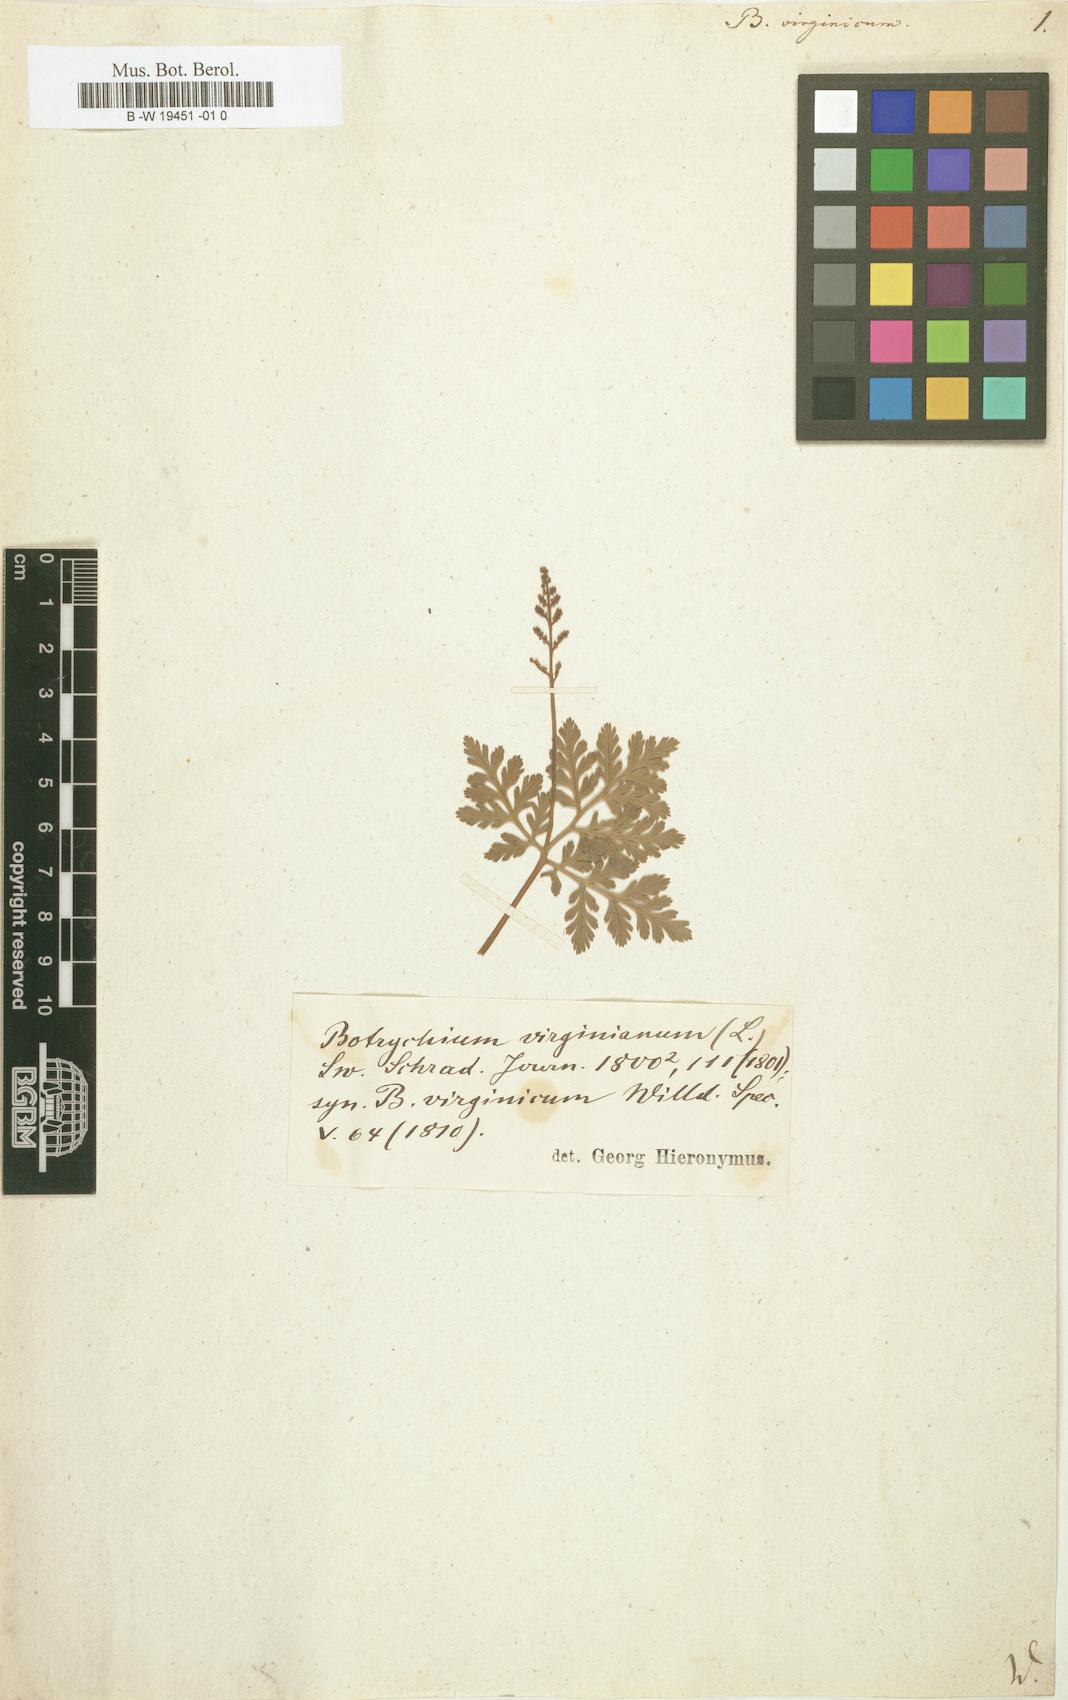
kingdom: Plantae
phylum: Tracheophyta
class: Polypodiopsida
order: Ophioglossales
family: Ophioglossaceae
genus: Botrypus
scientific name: Botrypus virginianus
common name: Common grapefern
